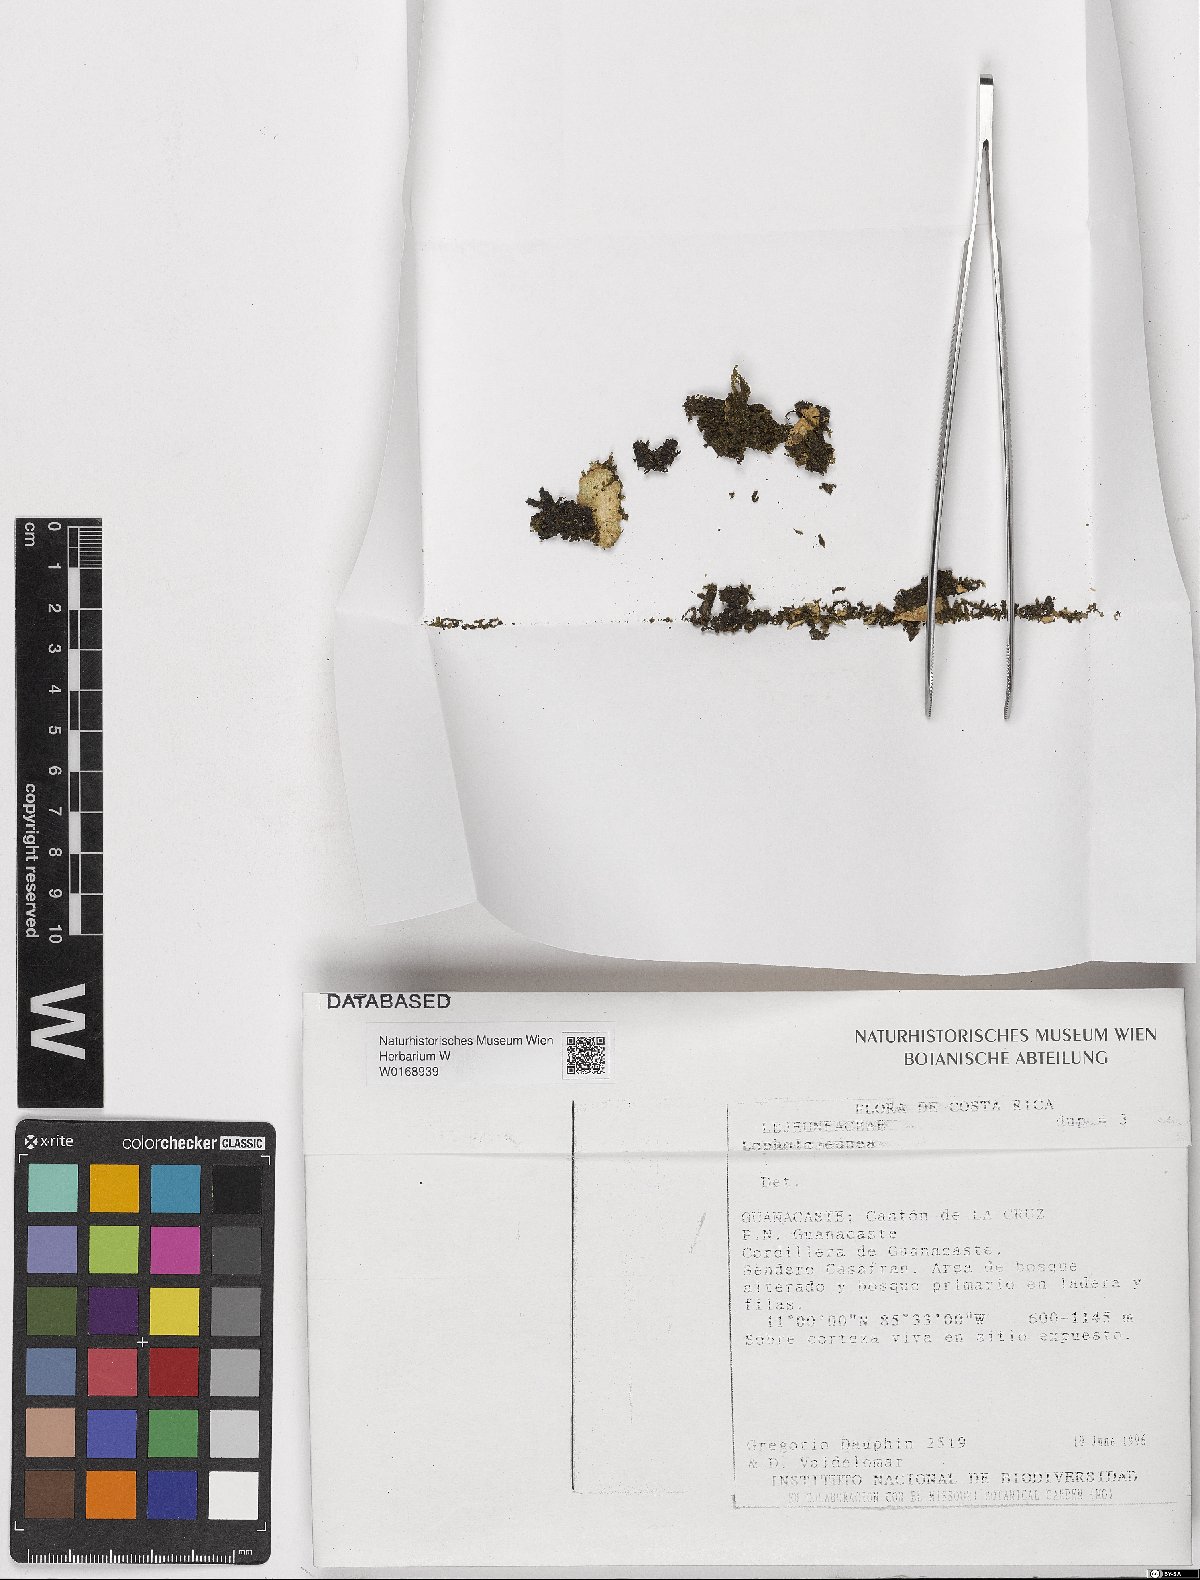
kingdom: Plantae
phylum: Marchantiophyta
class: Jungermanniopsida
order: Porellales
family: Lejeuneaceae
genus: Lopholejeunea
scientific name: Lopholejeunea
